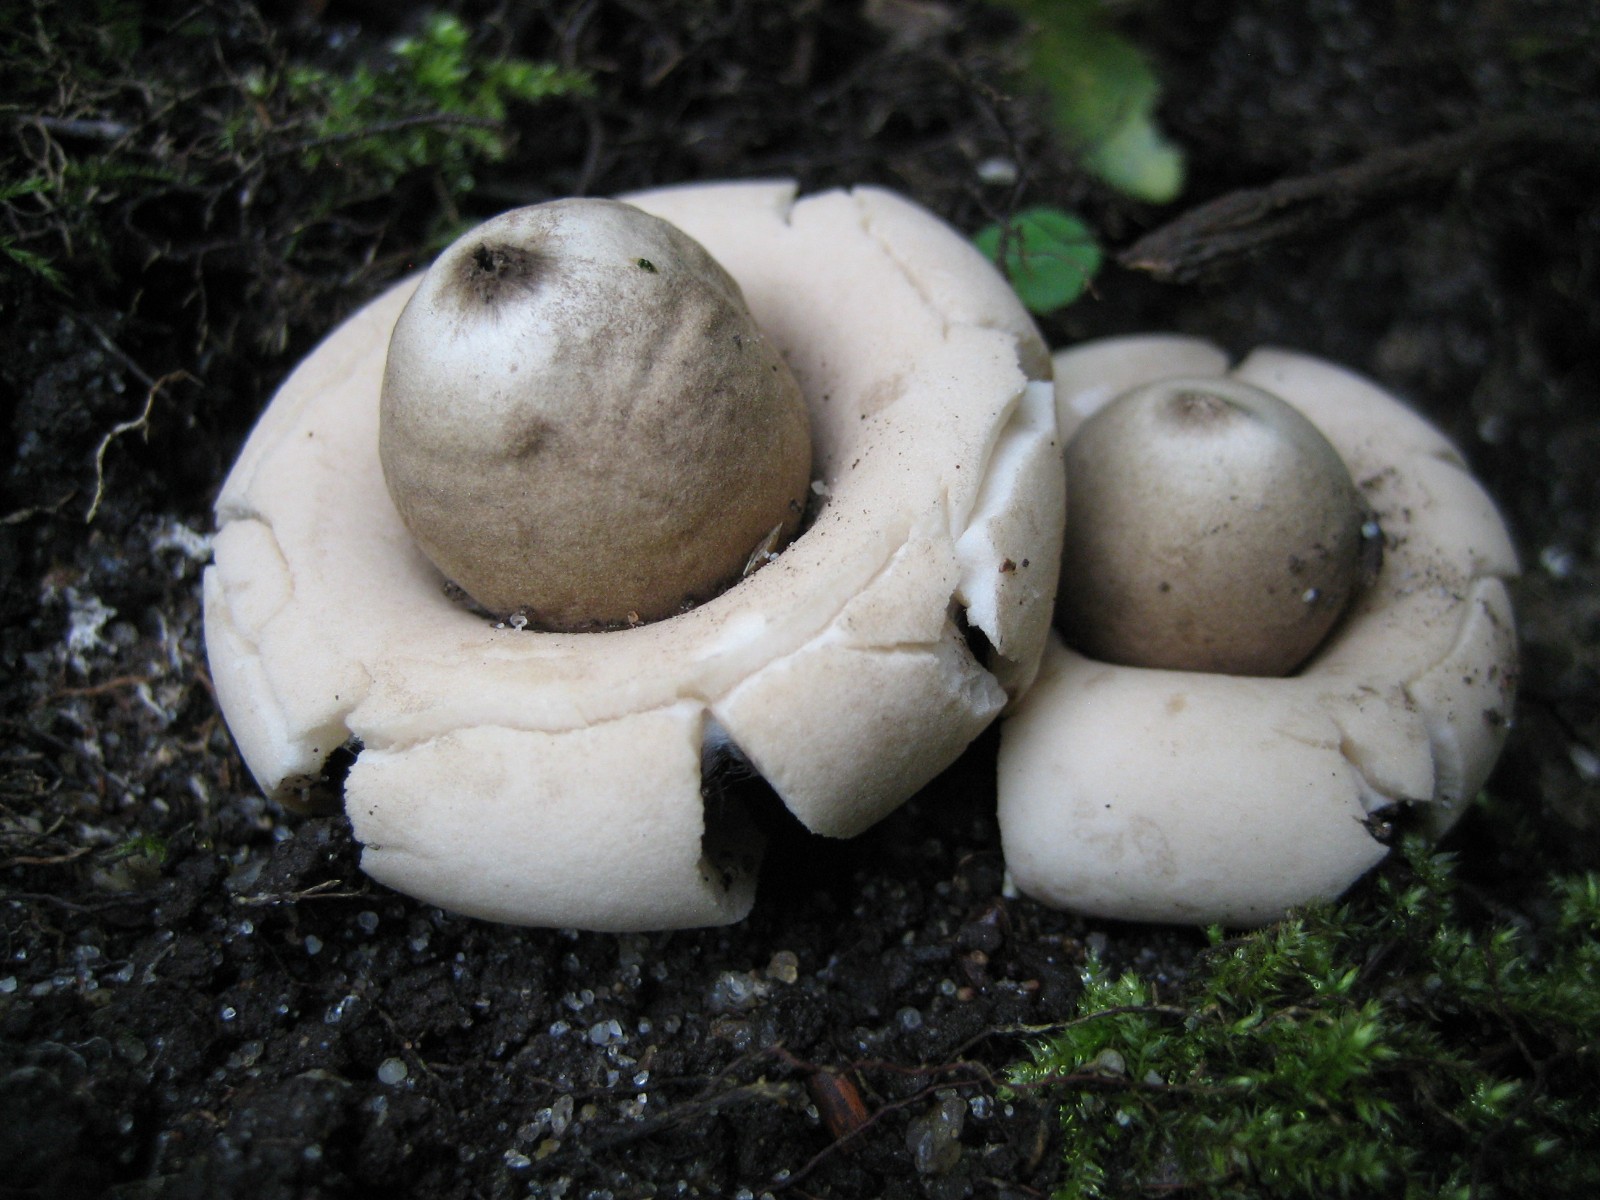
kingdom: Fungi
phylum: Basidiomycota
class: Agaricomycetes
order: Geastrales
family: Geastraceae
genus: Geastrum
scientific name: Geastrum fimbriatum
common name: frynset stjernebold
